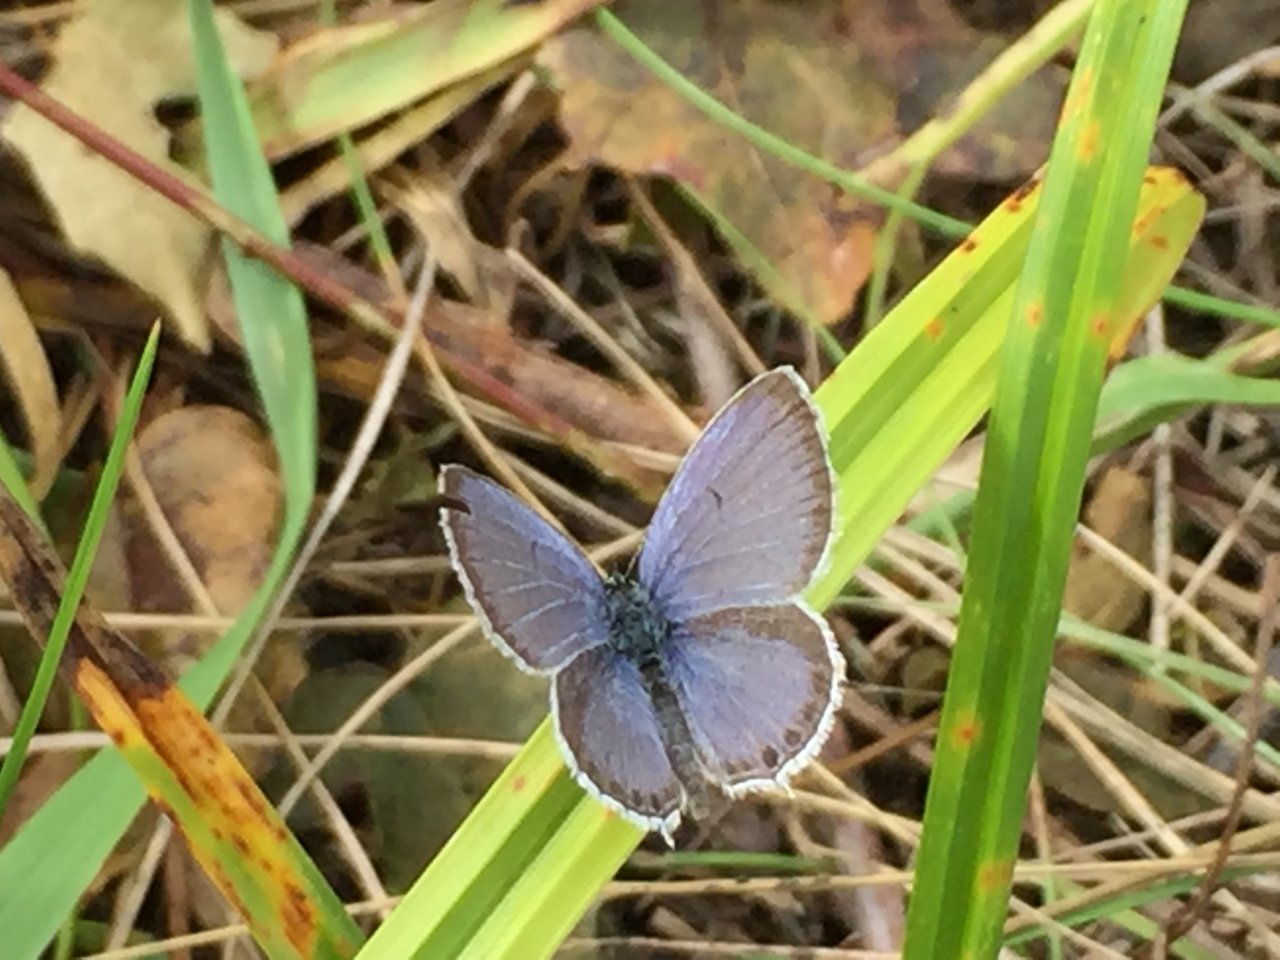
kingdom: Animalia
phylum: Arthropoda
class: Insecta
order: Lepidoptera
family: Lycaenidae
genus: Elkalyce
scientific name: Elkalyce comyntas
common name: Eastern Tailed-Blue
